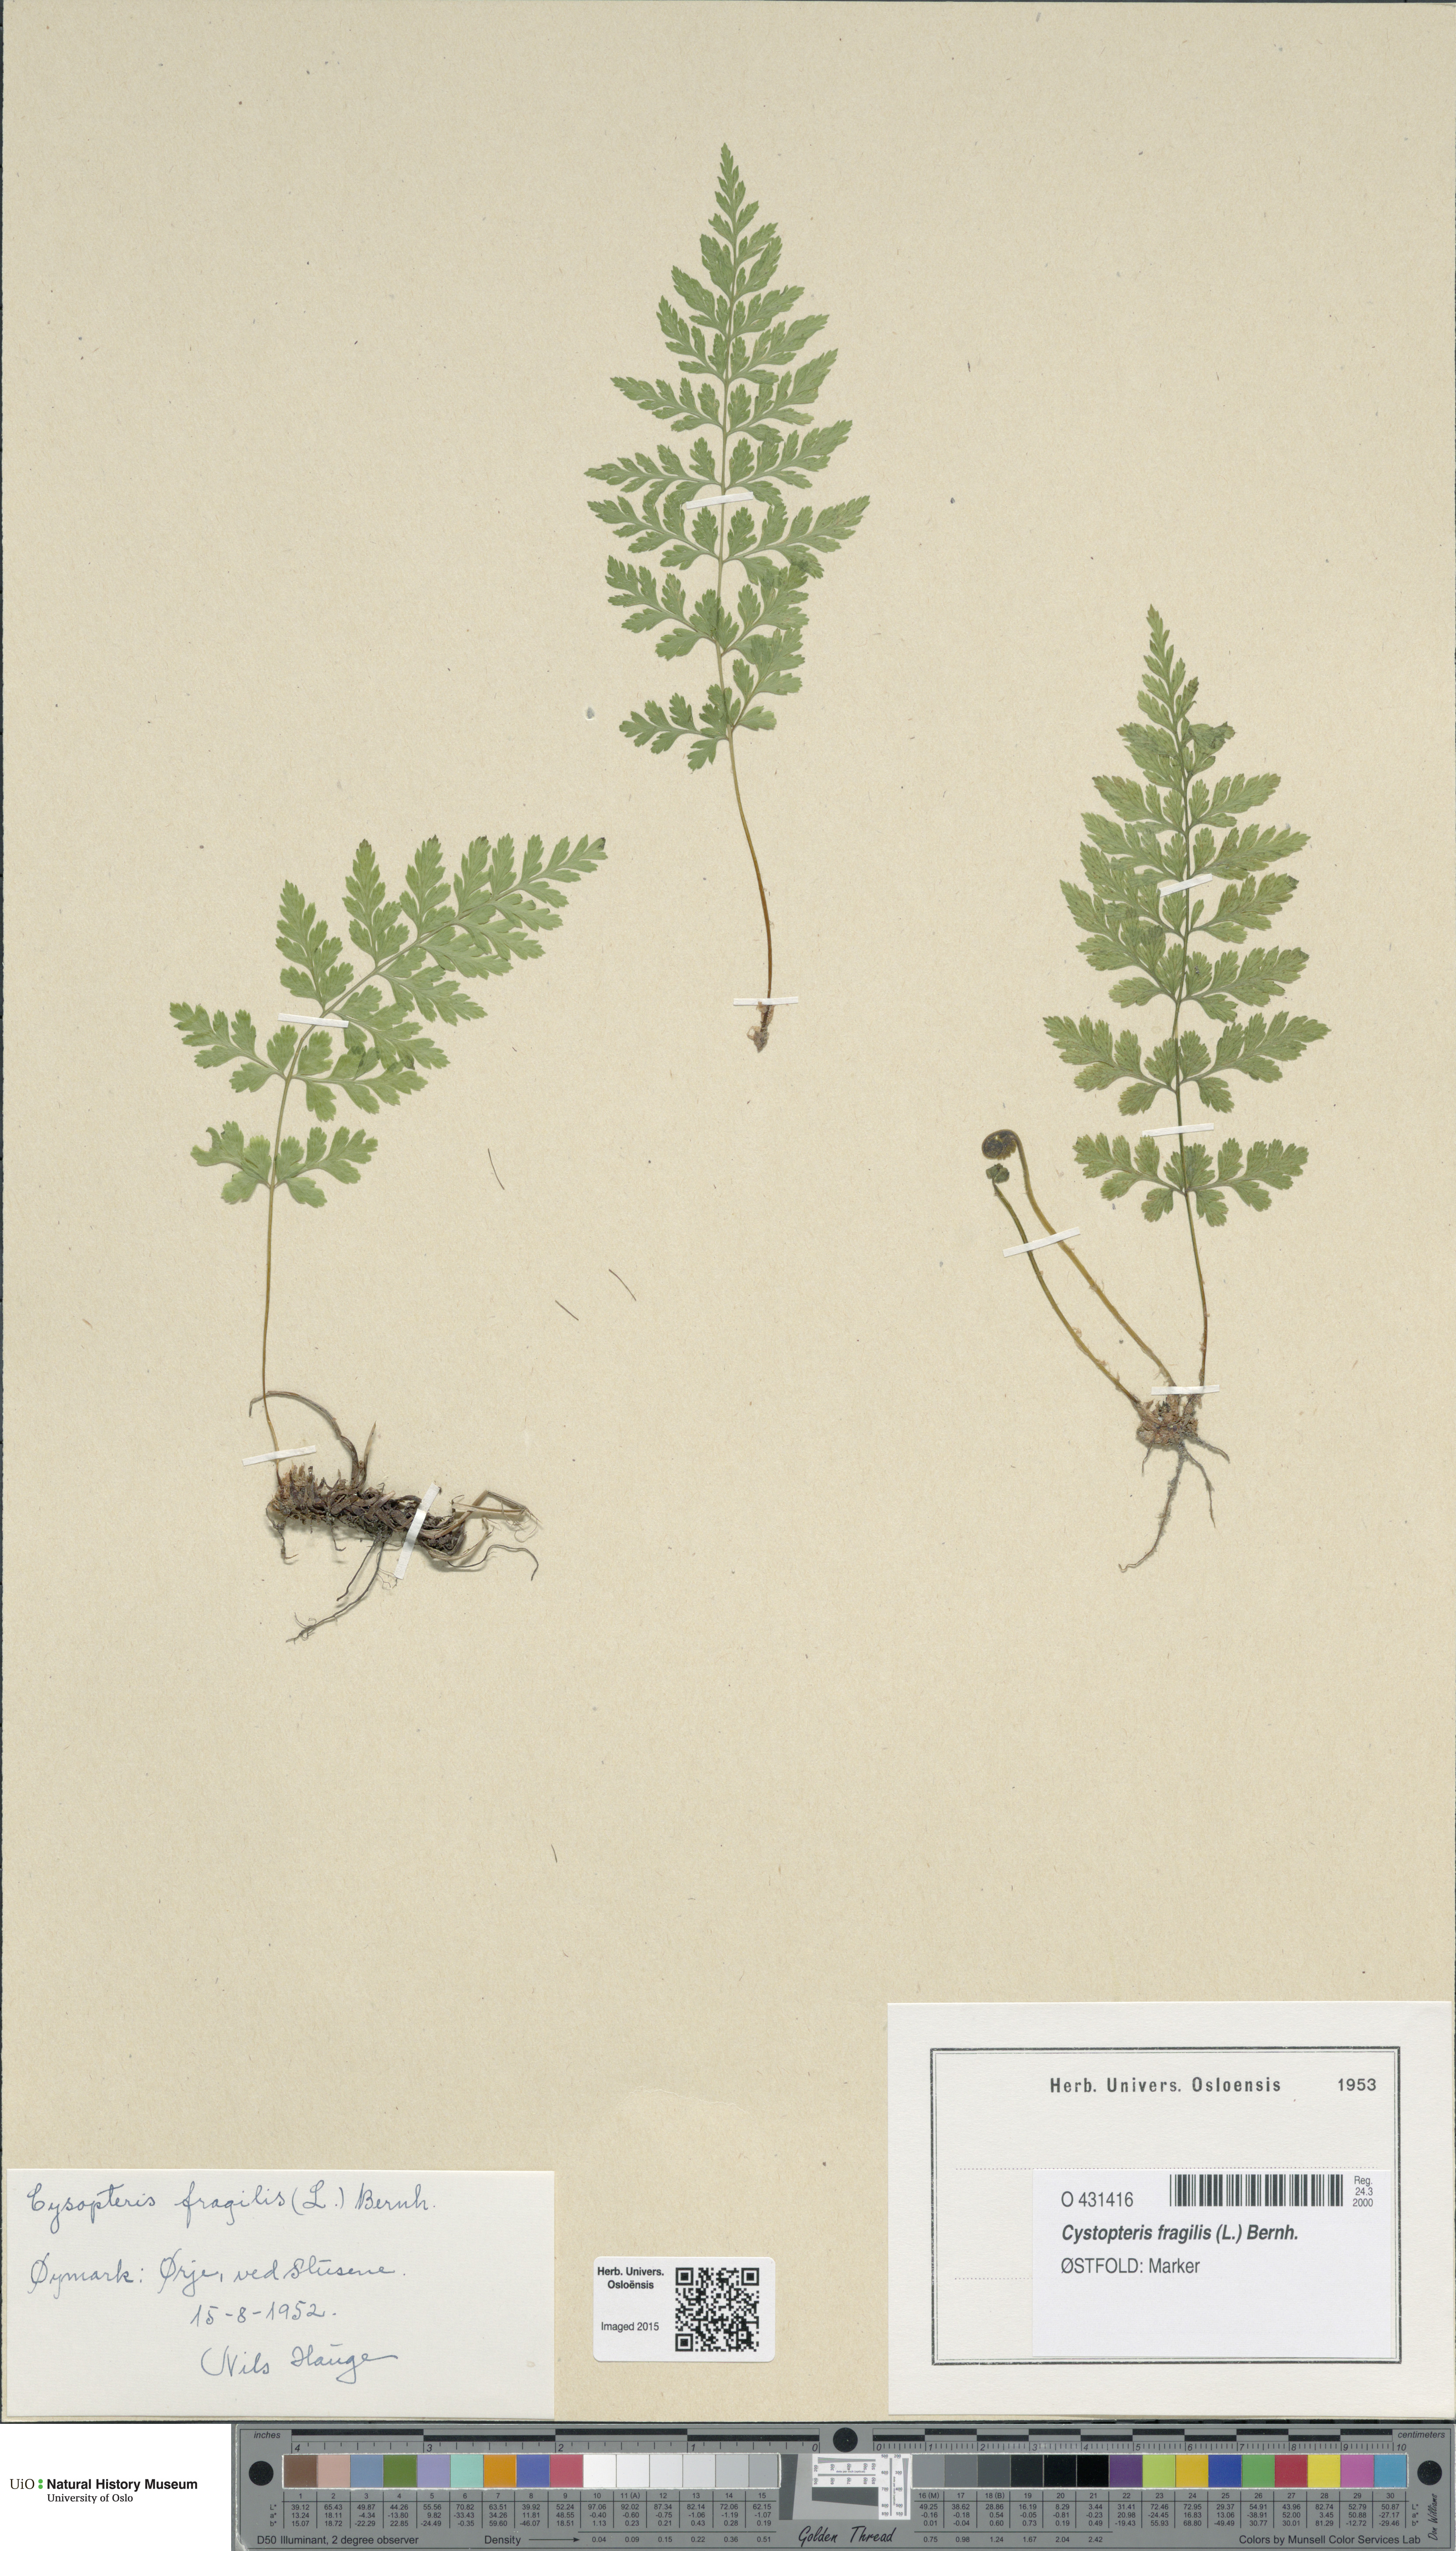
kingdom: Plantae
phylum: Tracheophyta
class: Polypodiopsida
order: Polypodiales
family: Cystopteridaceae
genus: Cystopteris
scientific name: Cystopteris fragilis
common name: Brittle bladder fern
